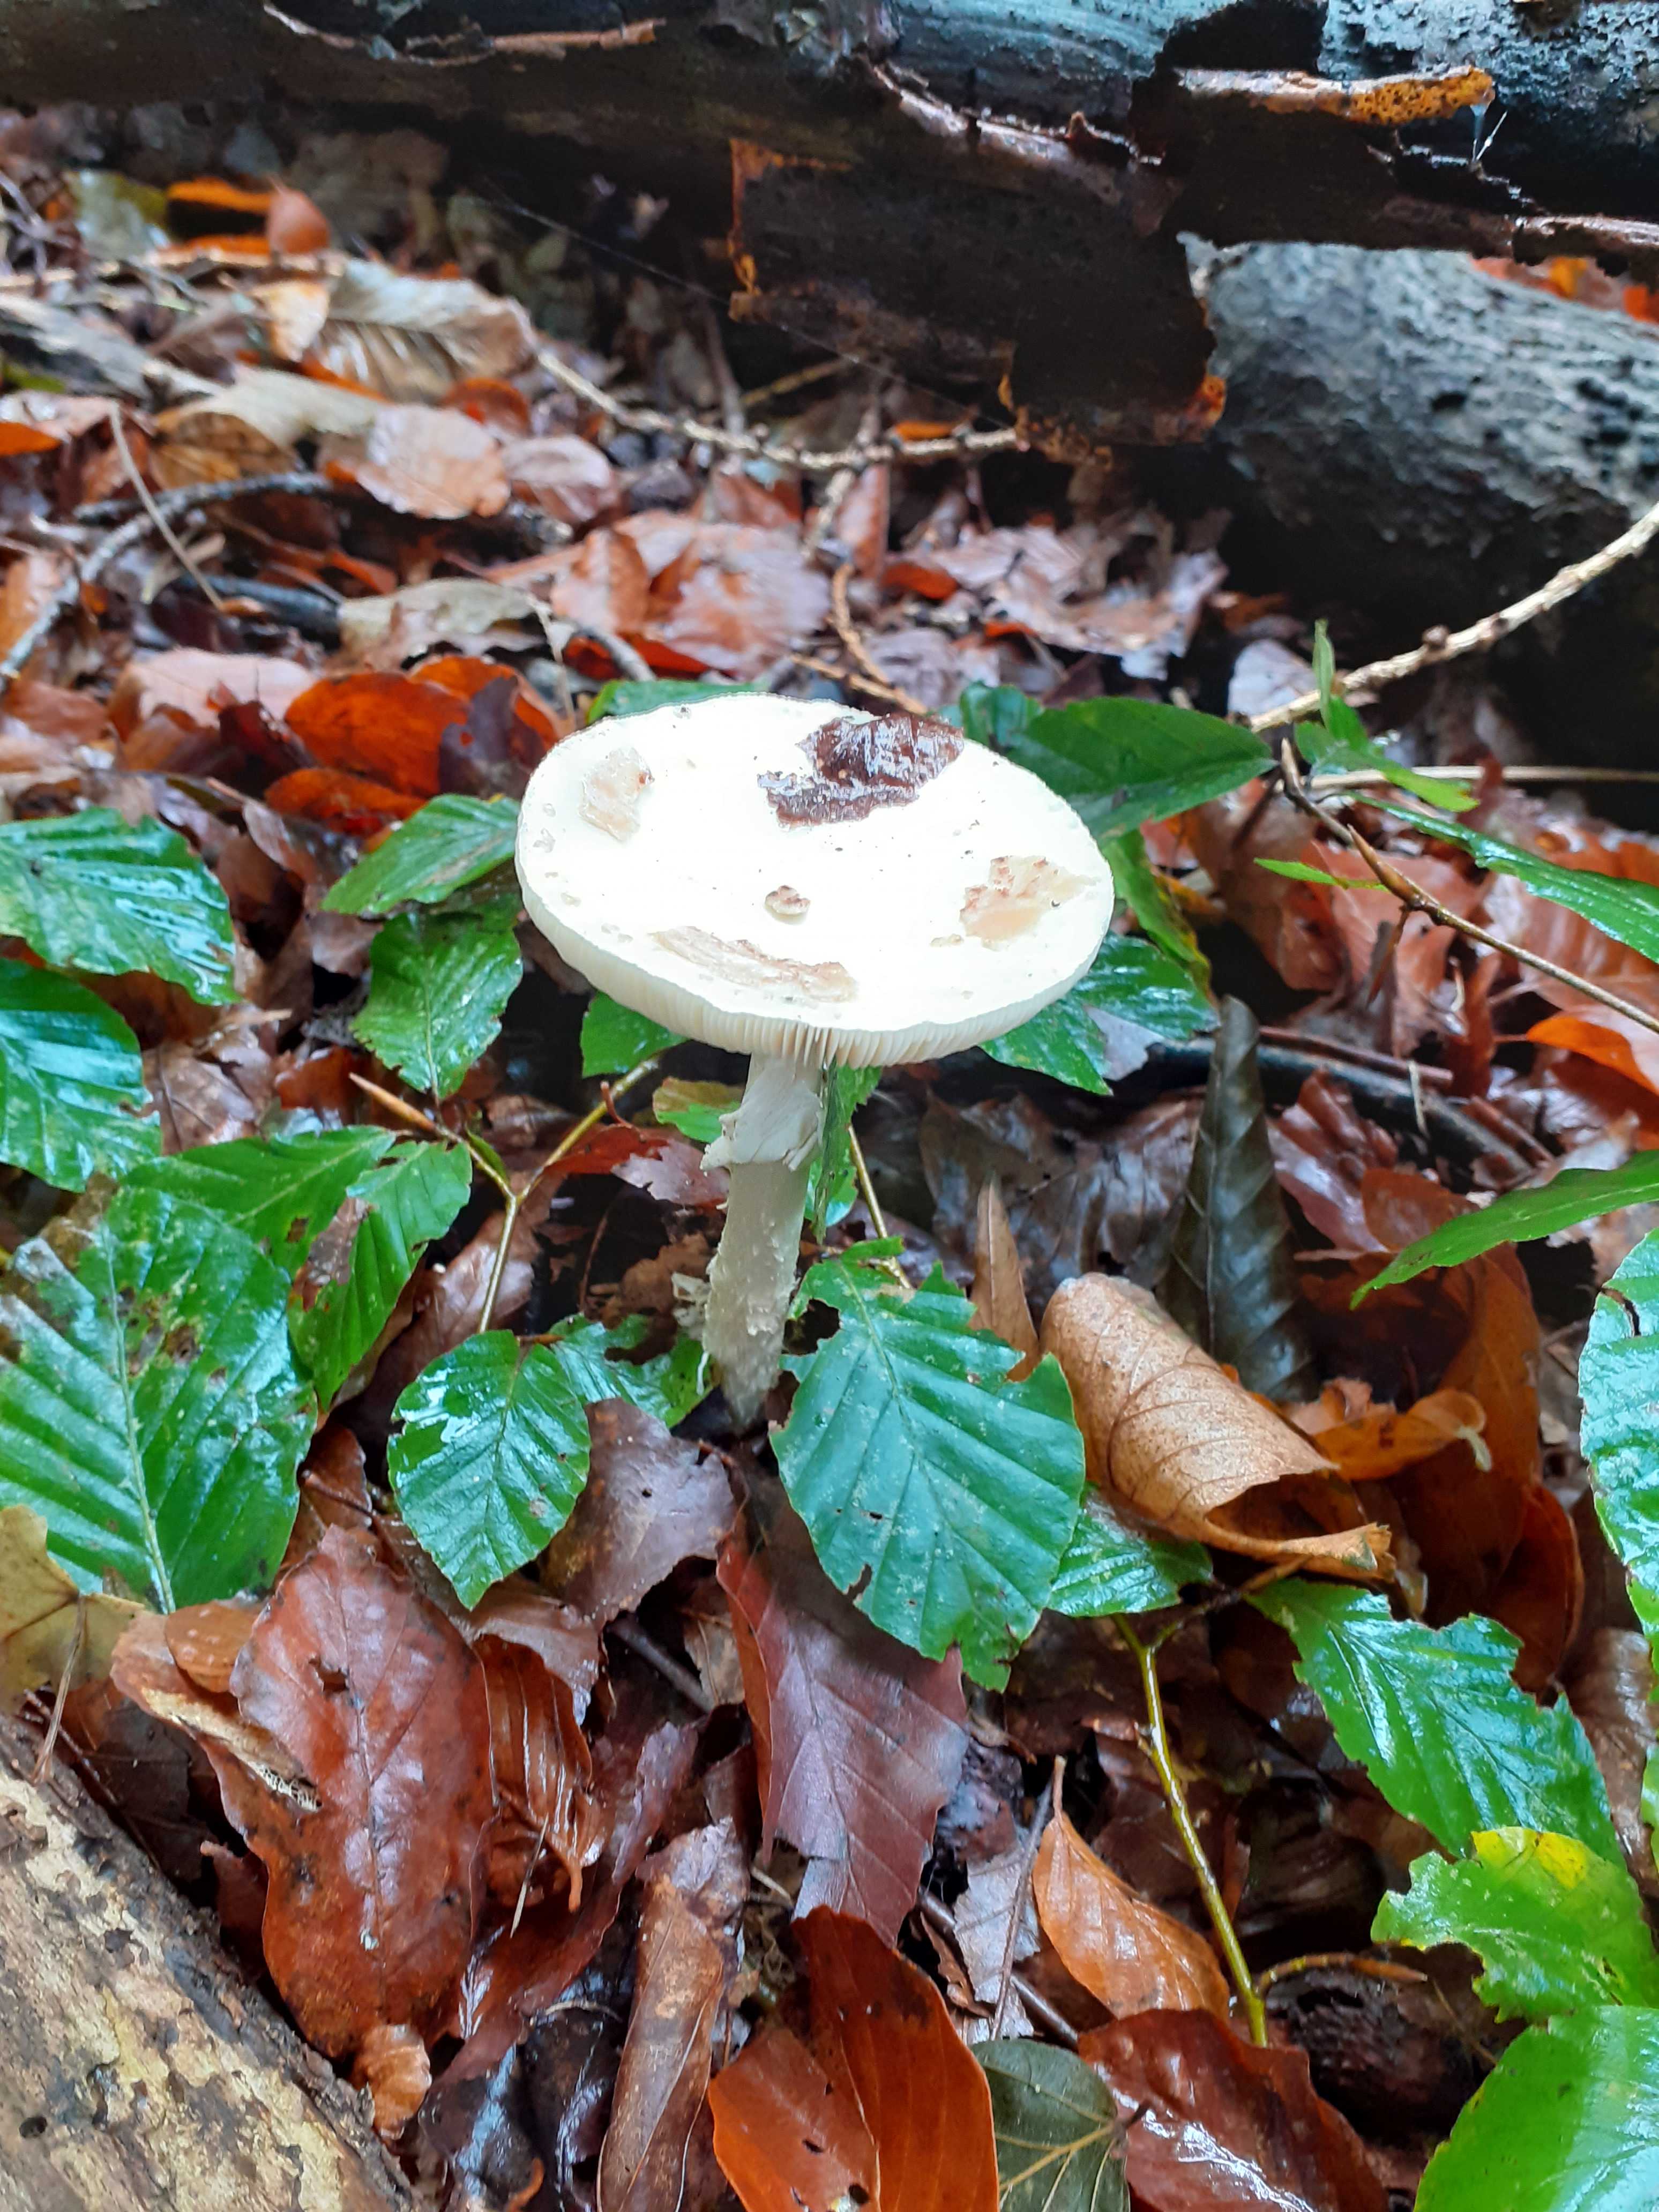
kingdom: Fungi
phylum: Basidiomycota
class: Agaricomycetes
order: Agaricales
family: Amanitaceae
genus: Amanita
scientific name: Amanita citrina
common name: False death-cap
